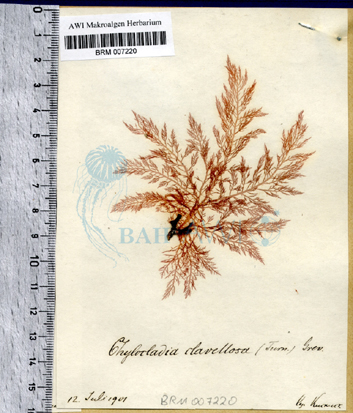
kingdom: Plantae
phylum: Rhodophyta
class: Florideophyceae
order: Rhodymeniales
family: Lomentariaceae
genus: Lomentaria
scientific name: Lomentaria clavellosa
